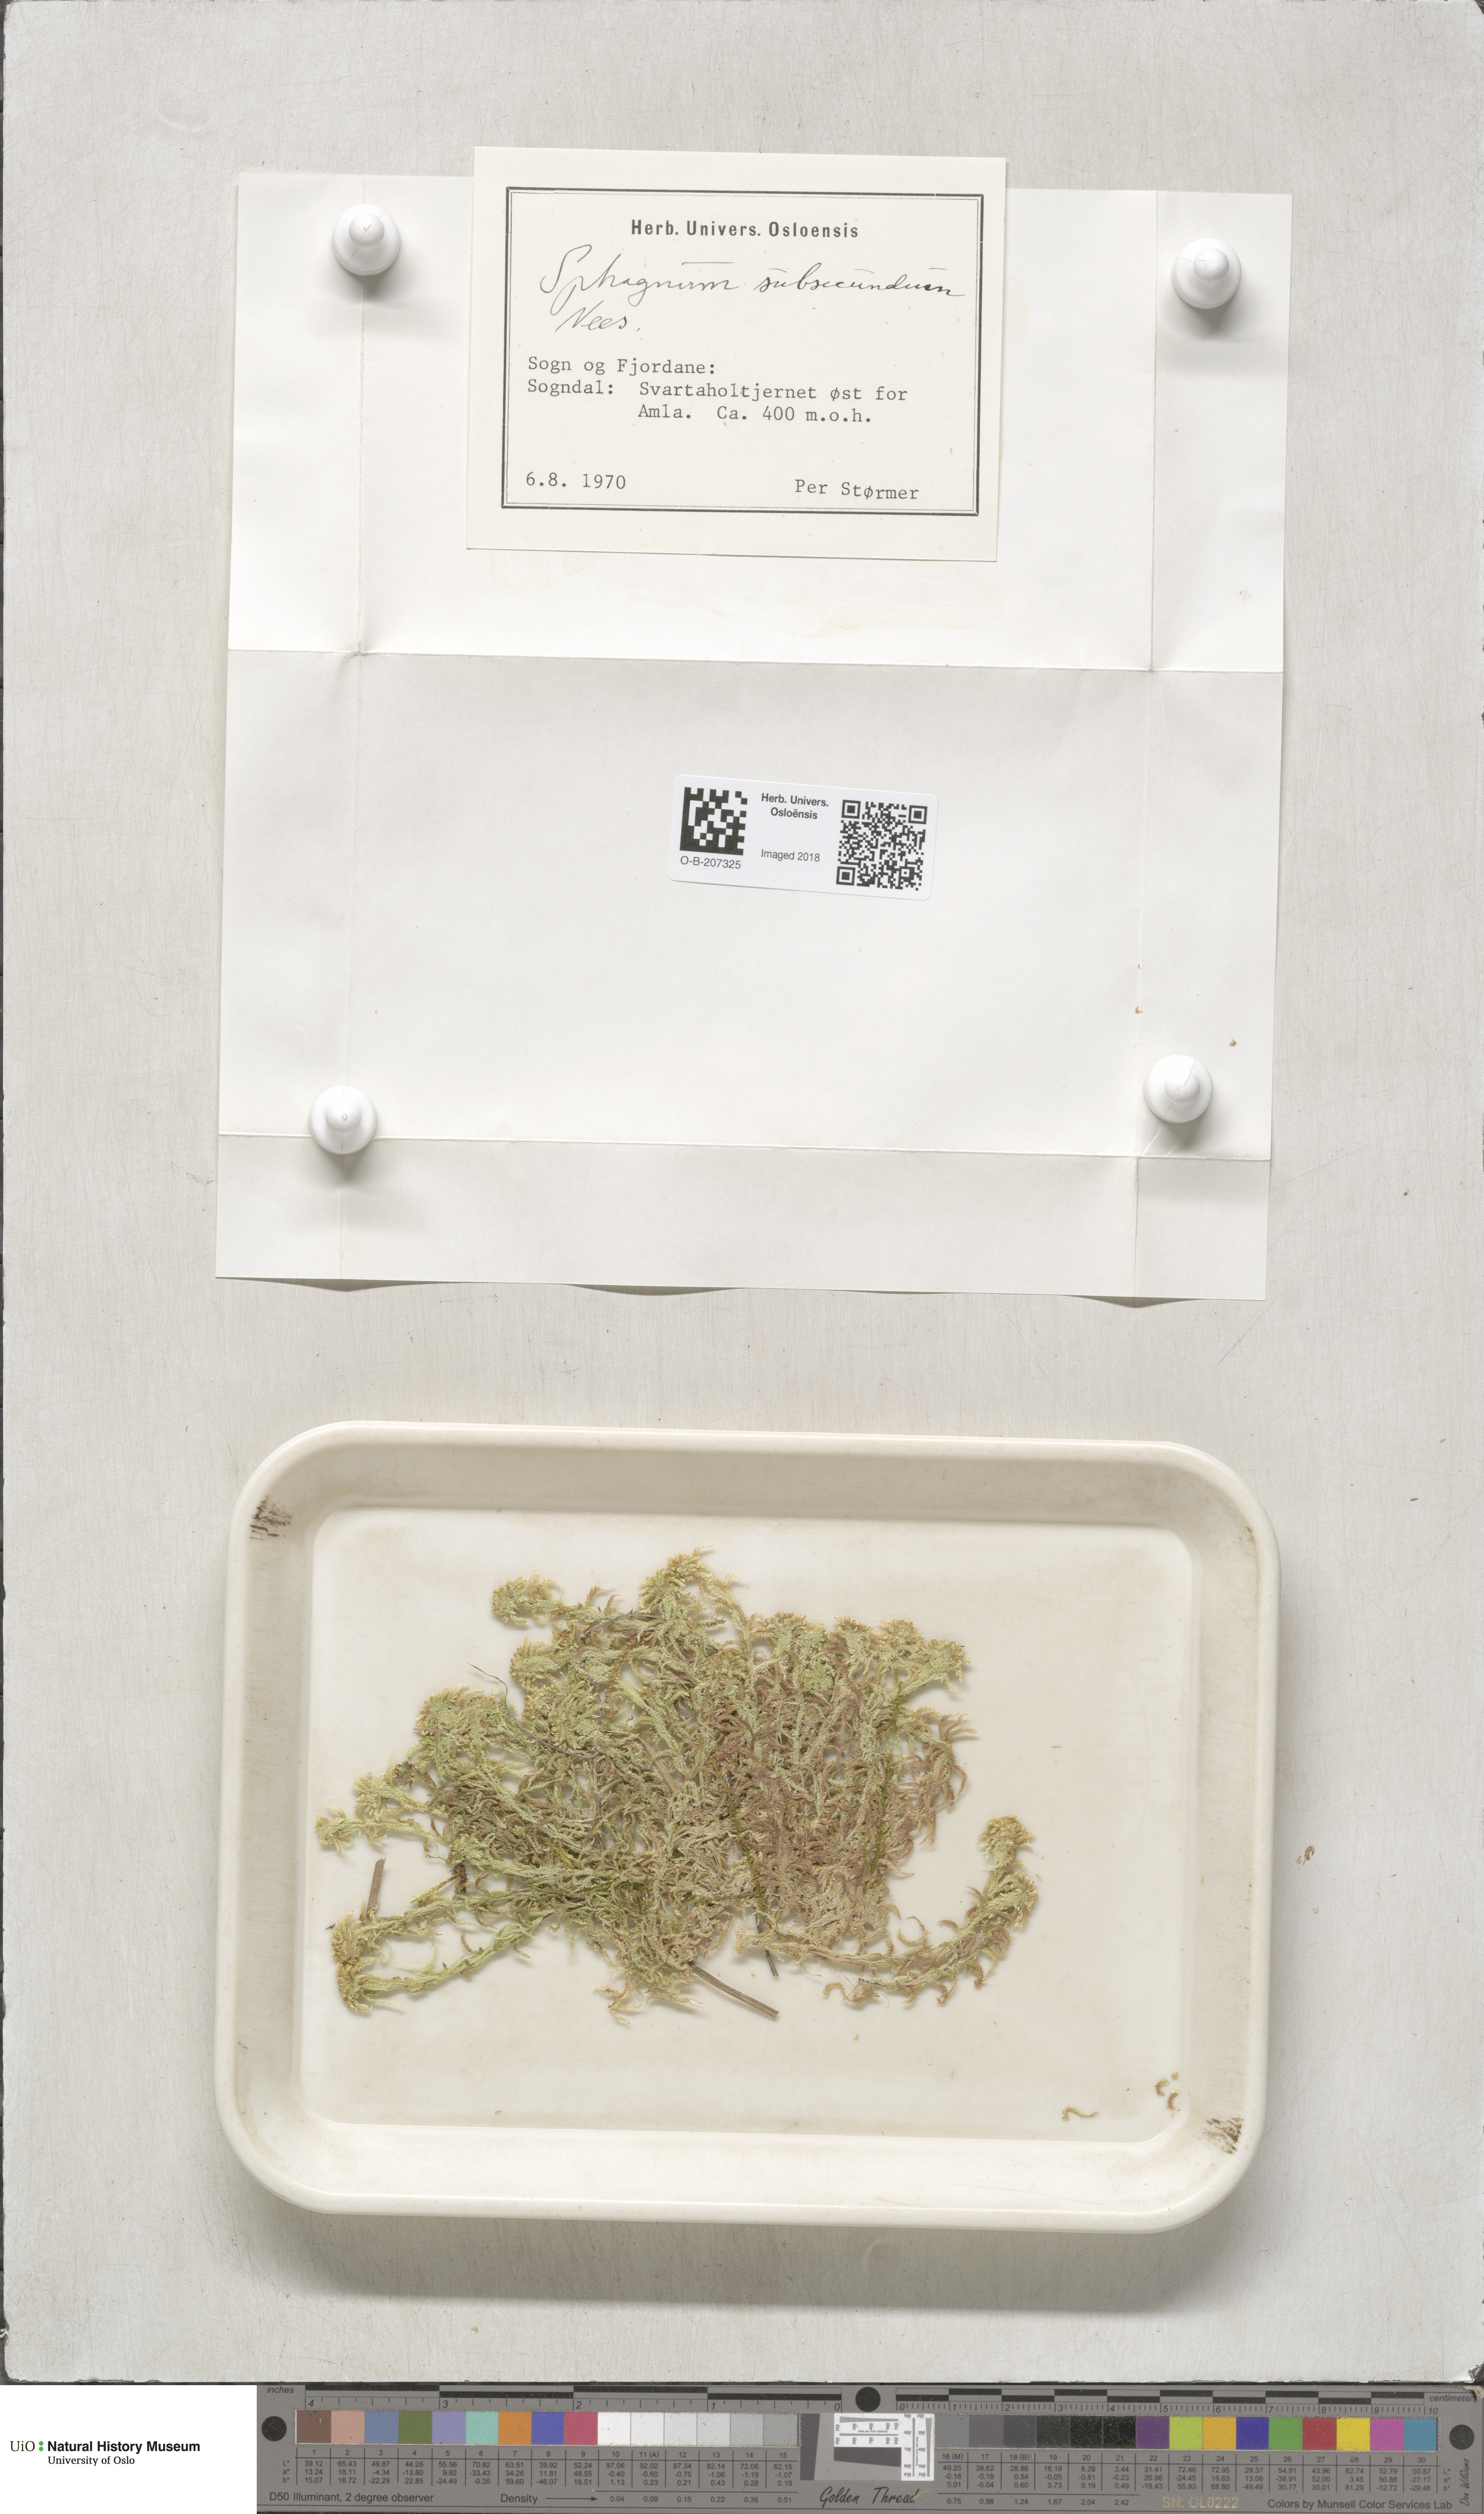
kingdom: Plantae
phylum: Bryophyta
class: Sphagnopsida
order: Sphagnales
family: Sphagnaceae
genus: Sphagnum
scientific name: Sphagnum subsecundum
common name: Orange peat moss
